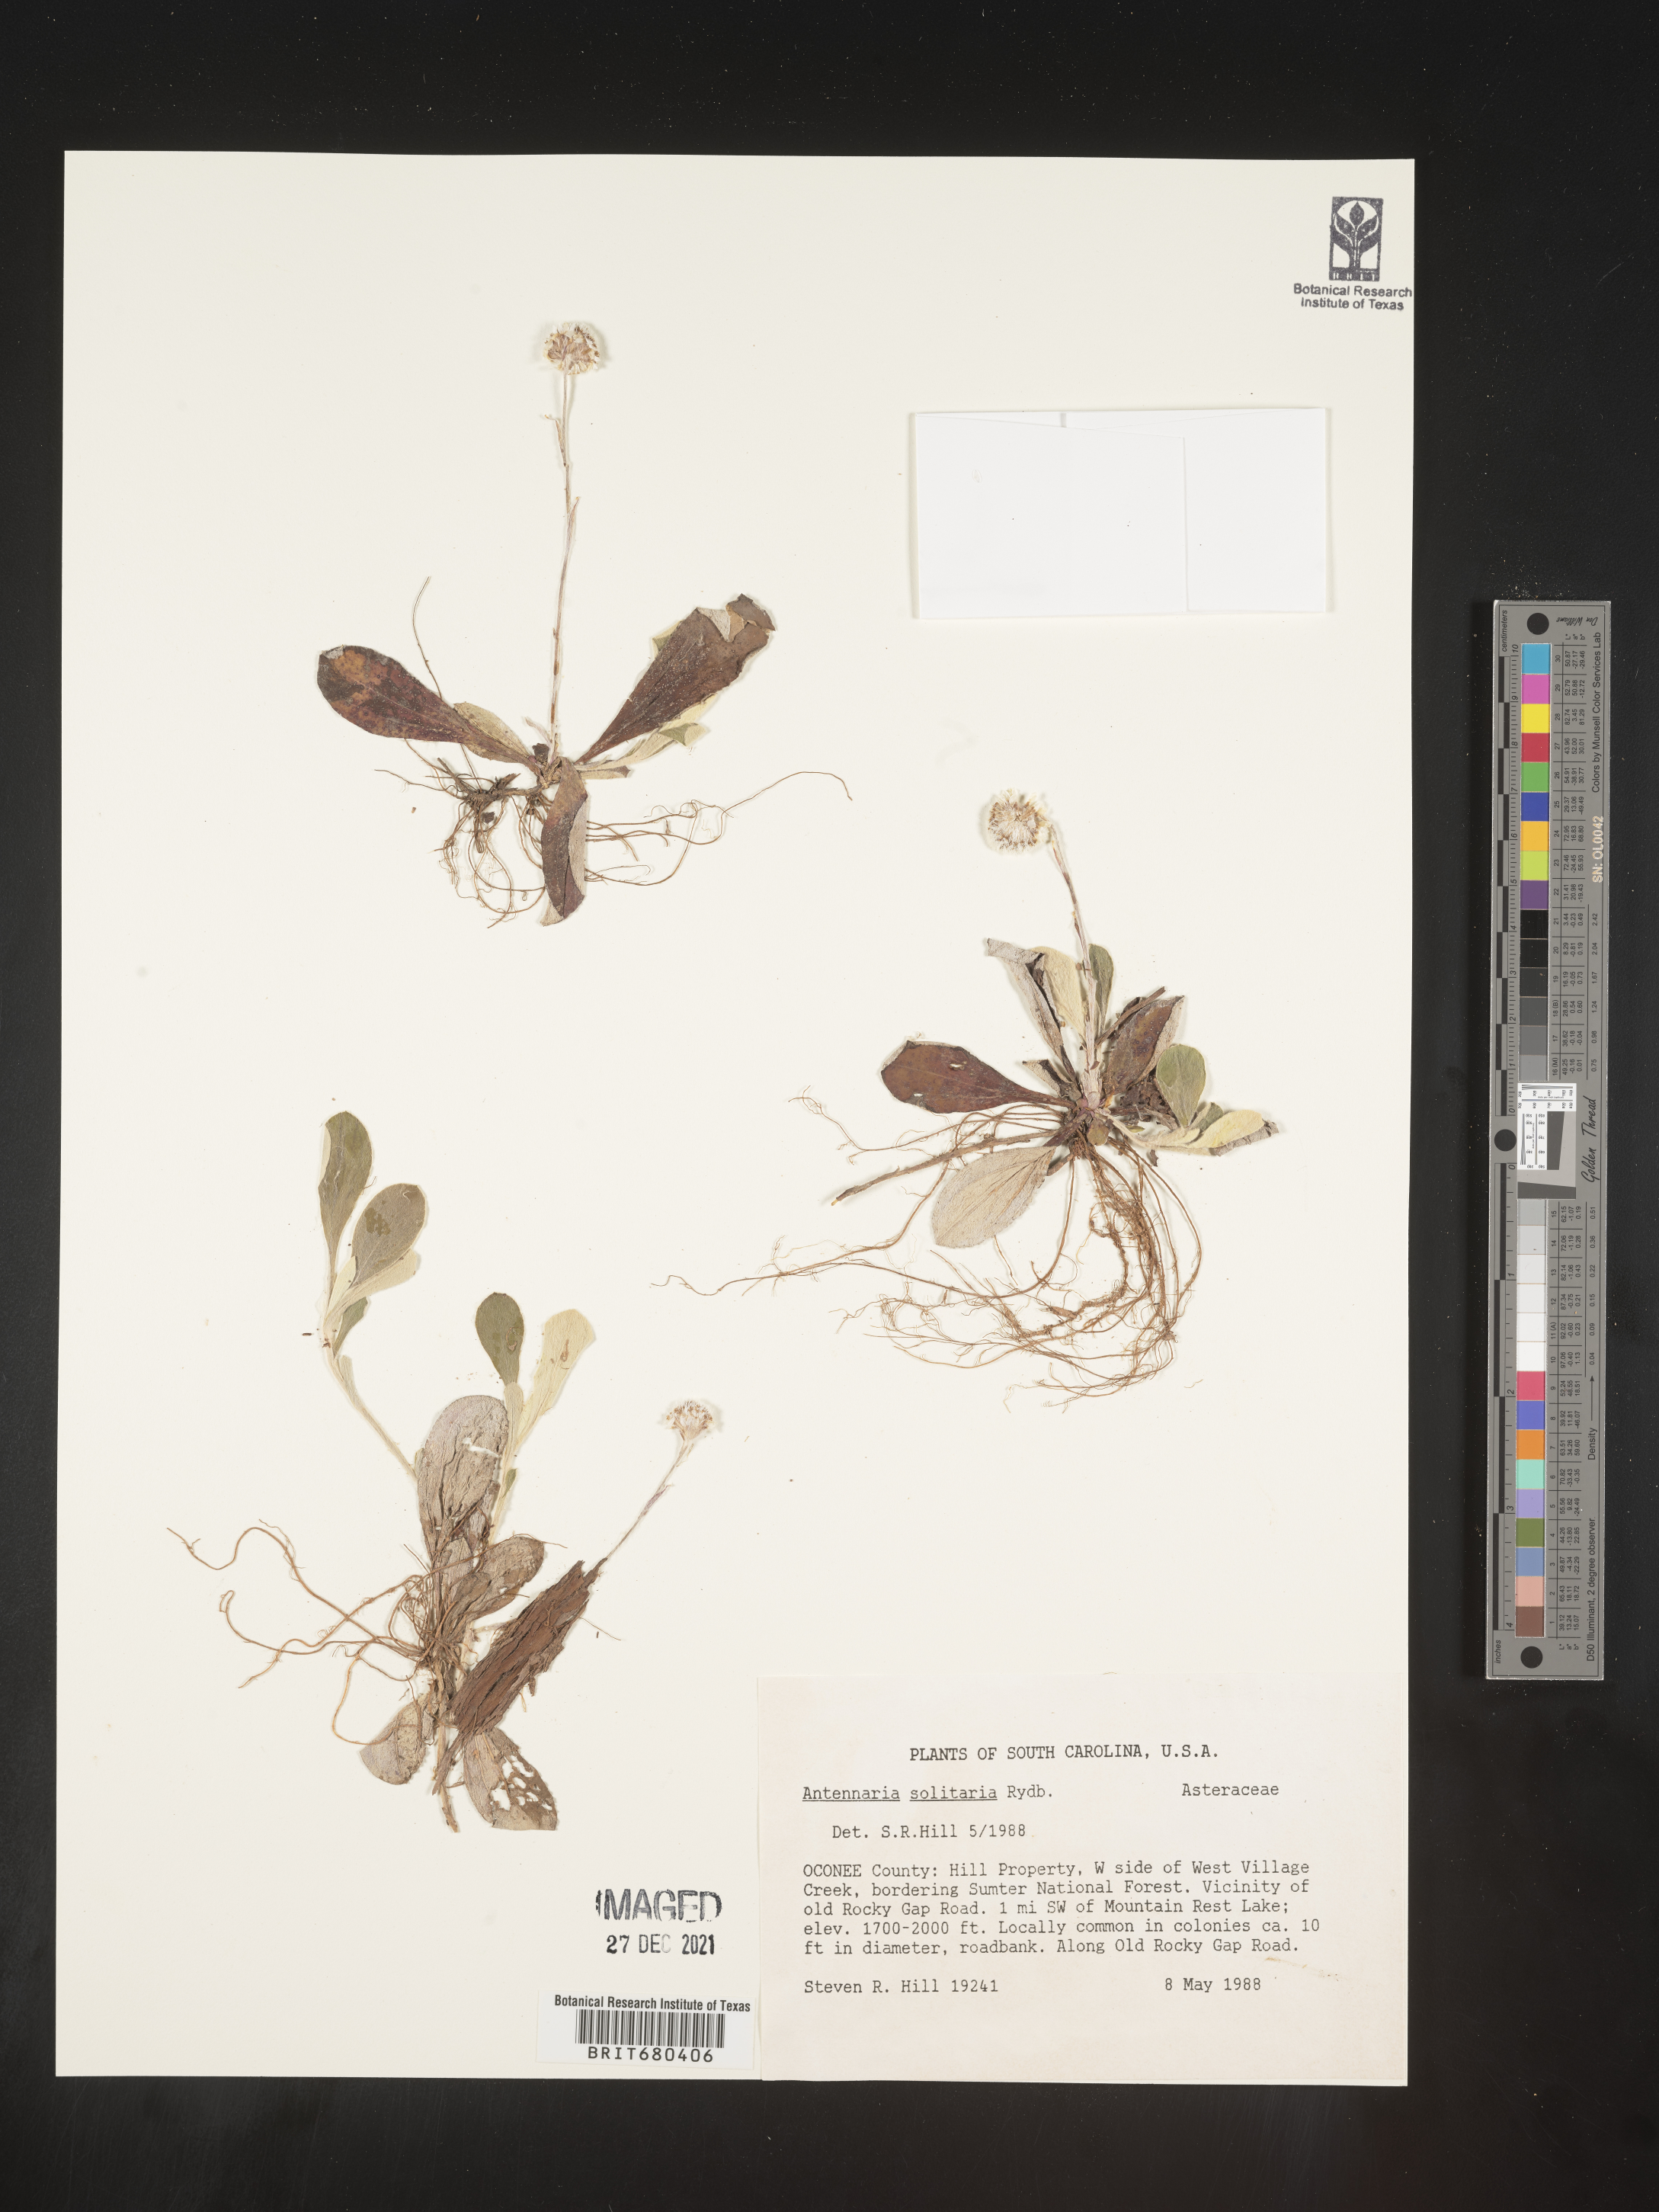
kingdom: Plantae
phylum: Tracheophyta
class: Magnoliopsida
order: Asterales
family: Asteraceae
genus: Antennaria
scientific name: Antennaria solitaria
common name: Single-head pussytoes
